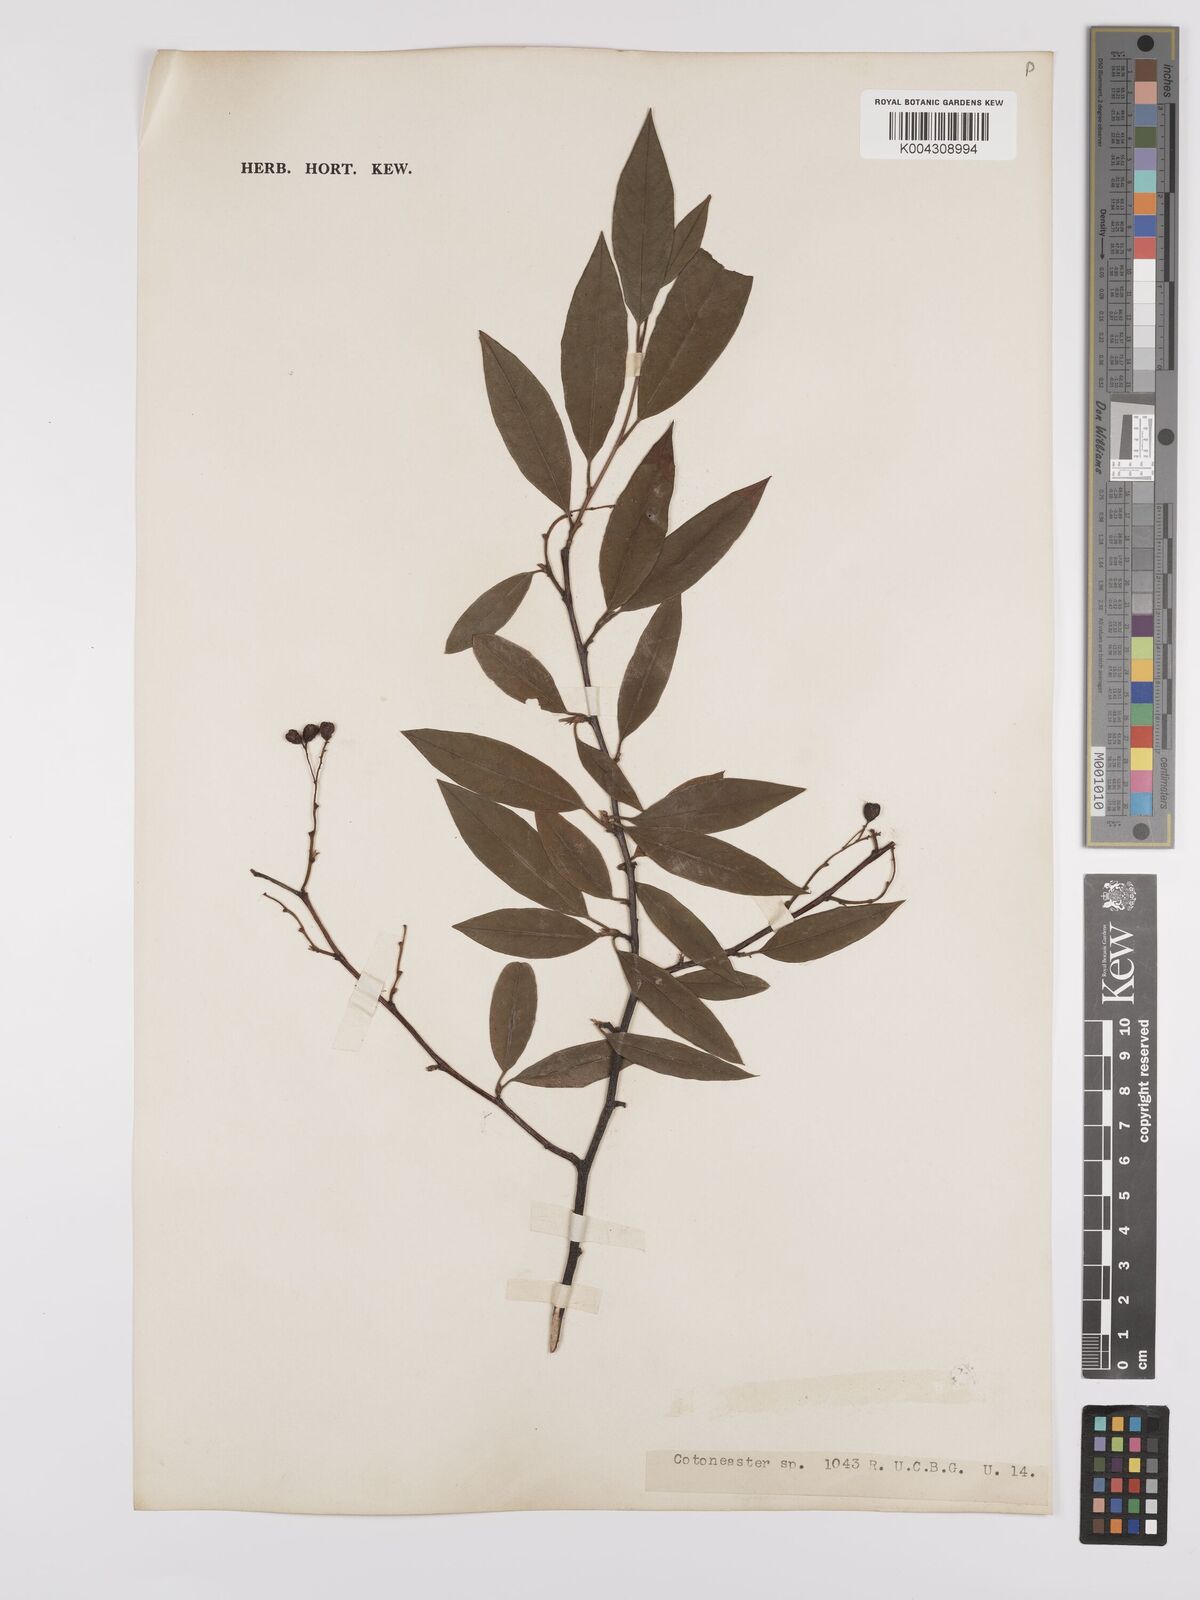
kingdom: Plantae
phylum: Tracheophyta
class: Magnoliopsida
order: Rosales
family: Rosaceae
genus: Cotoneaster
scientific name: Cotoneaster
